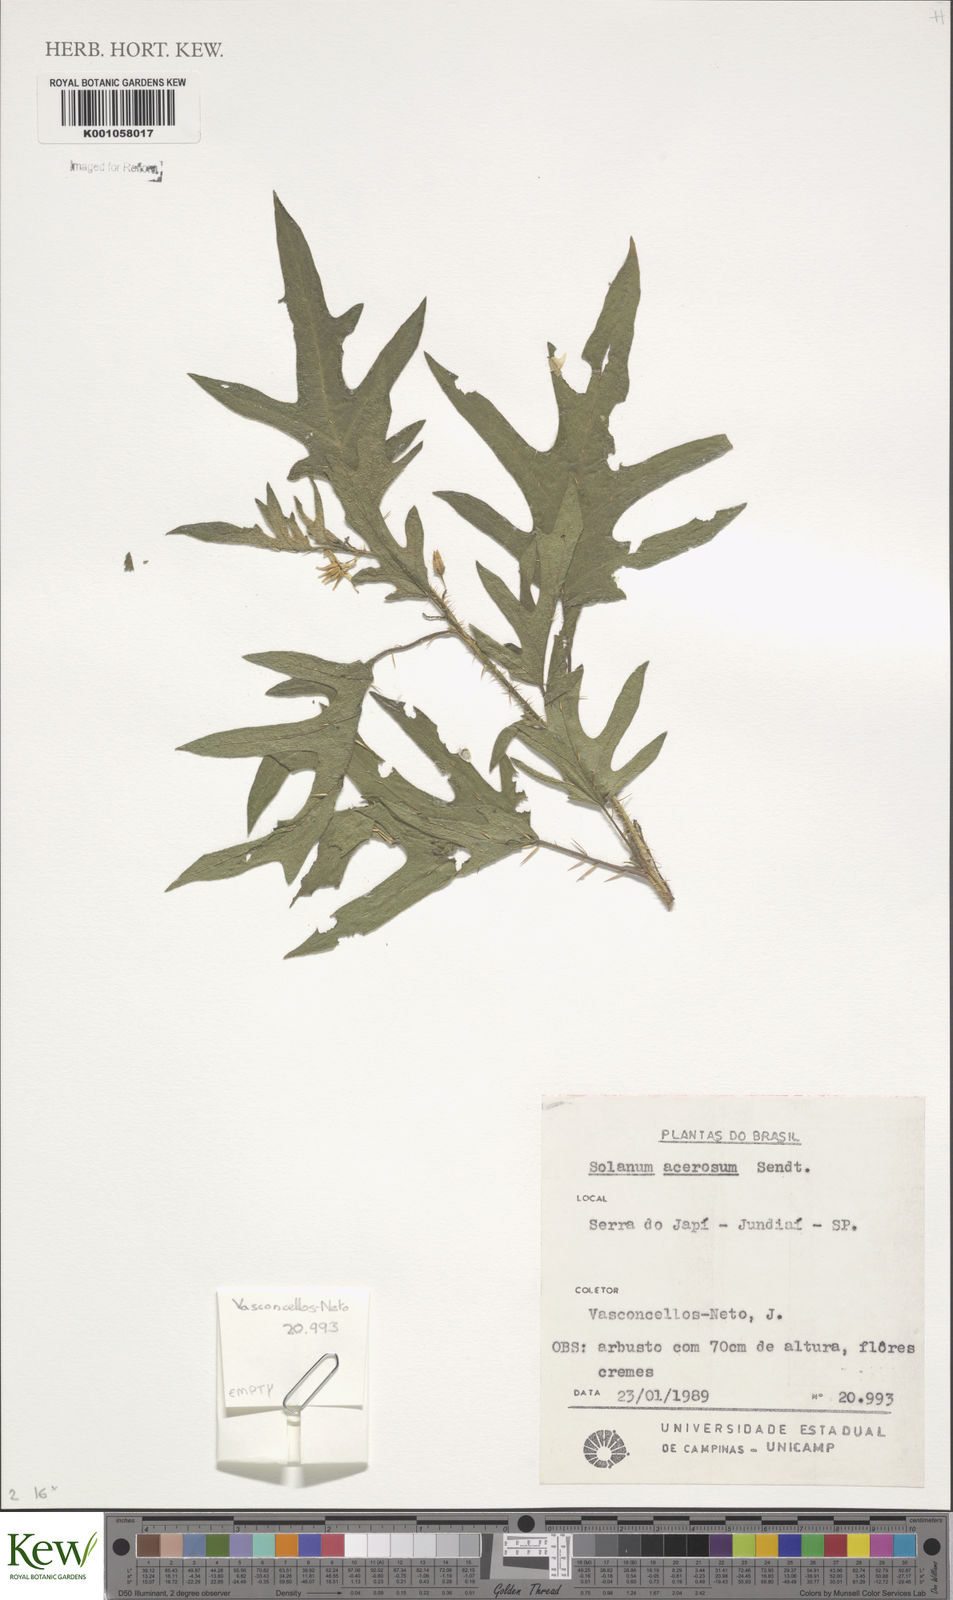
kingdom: Plantae
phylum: Tracheophyta
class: Magnoliopsida
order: Solanales
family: Solanaceae
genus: Solanum
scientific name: Solanum acerifolium
